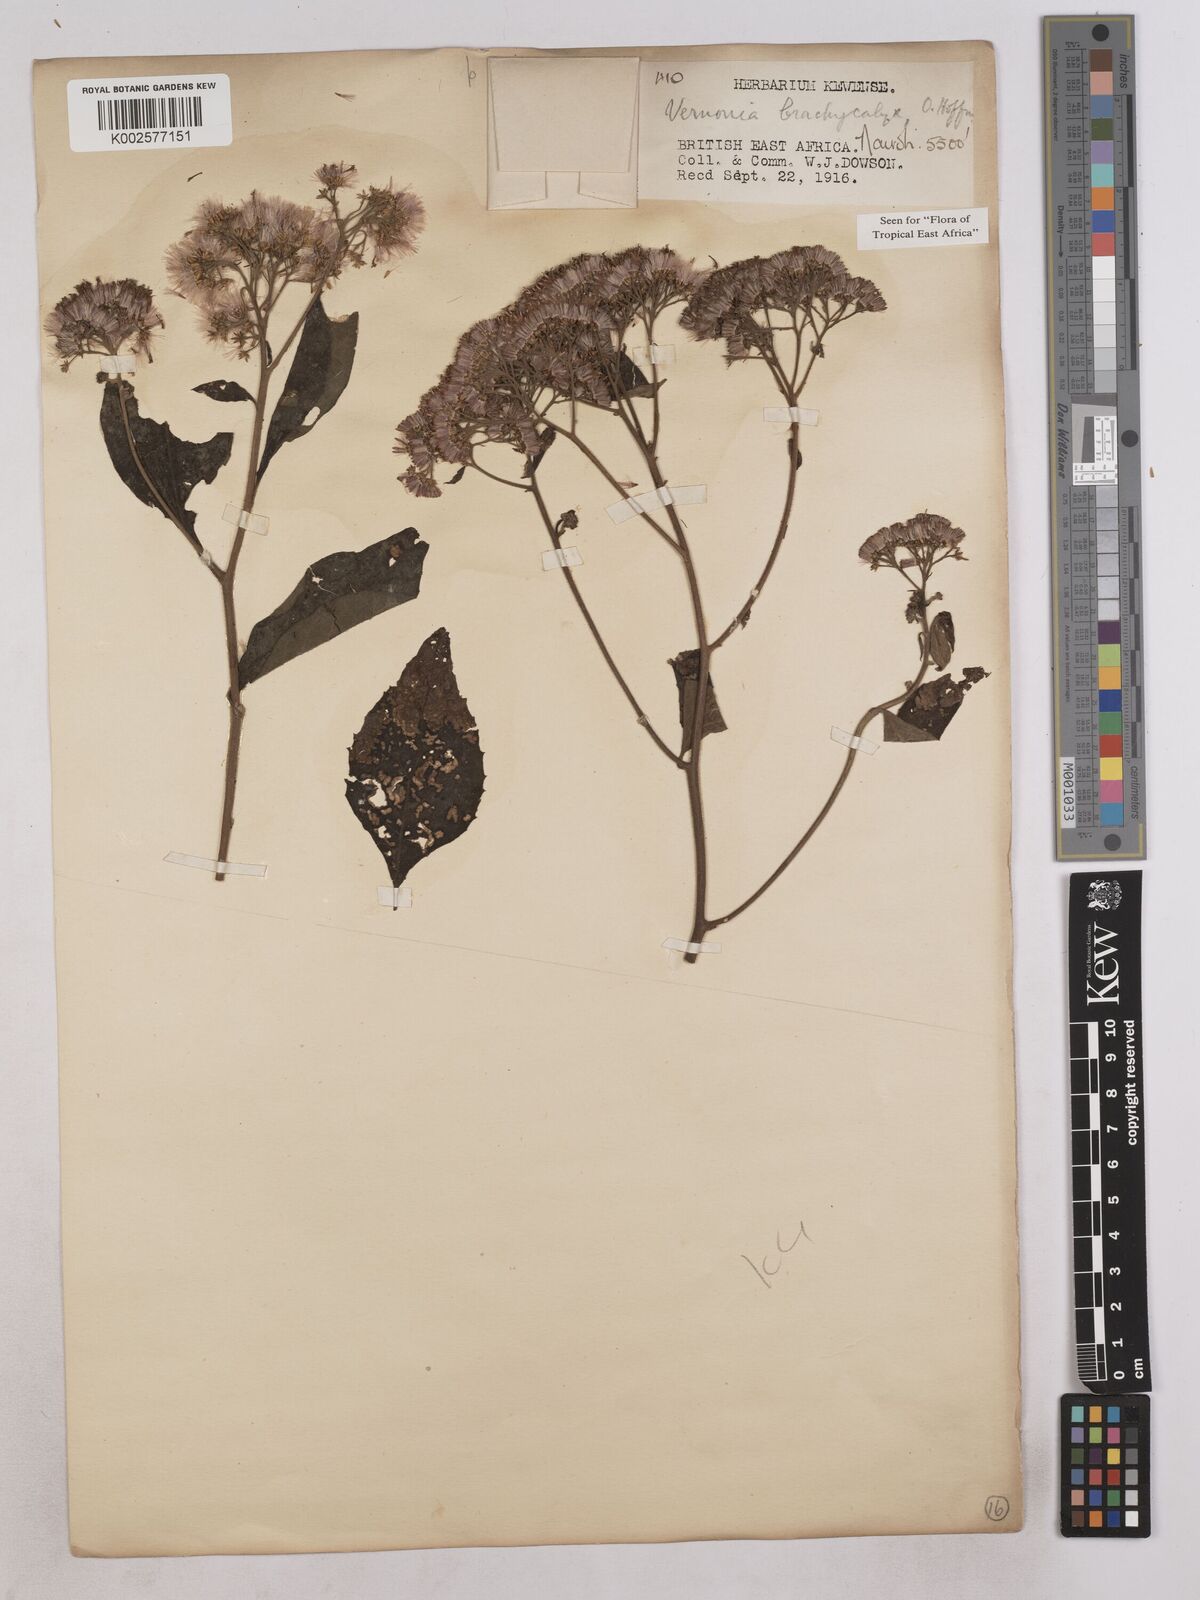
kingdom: Plantae
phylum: Tracheophyta
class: Magnoliopsida
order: Asterales
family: Asteraceae
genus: Hoffmannanthus
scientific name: Hoffmannanthus abbotianus
